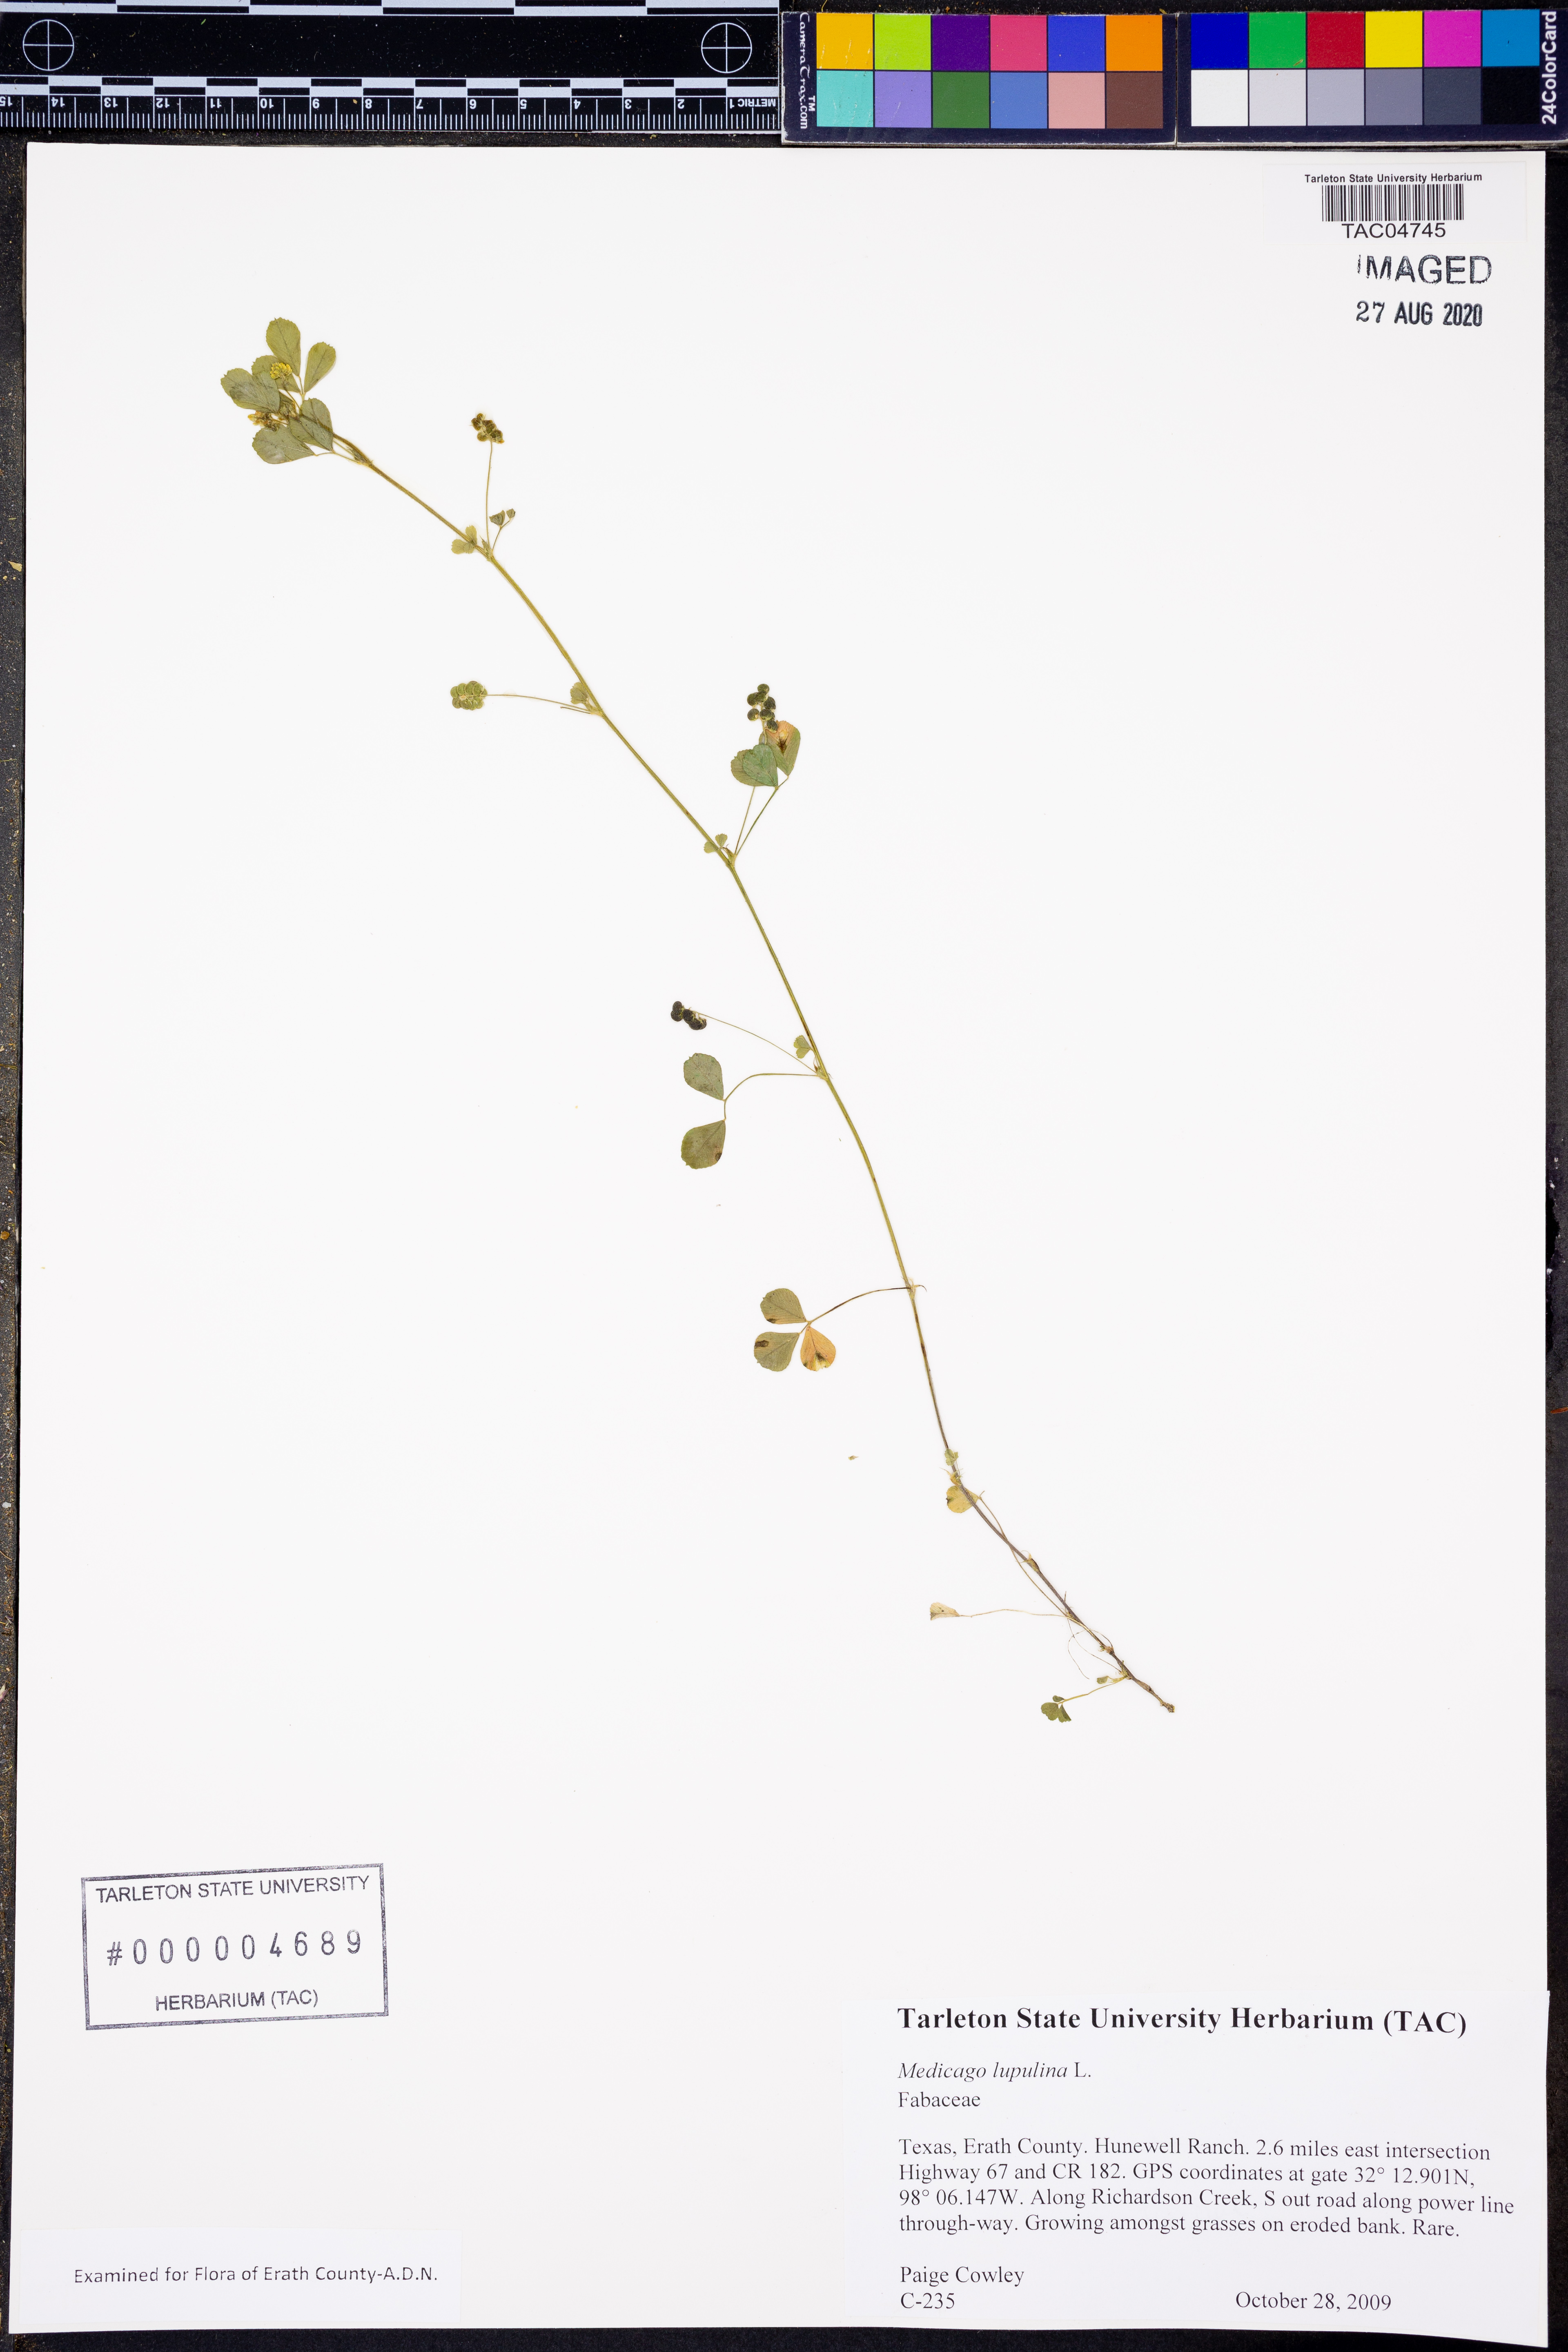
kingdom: Plantae
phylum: Tracheophyta
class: Magnoliopsida
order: Fabales
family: Fabaceae
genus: Medicago
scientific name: Medicago lupulina
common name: Black medick
